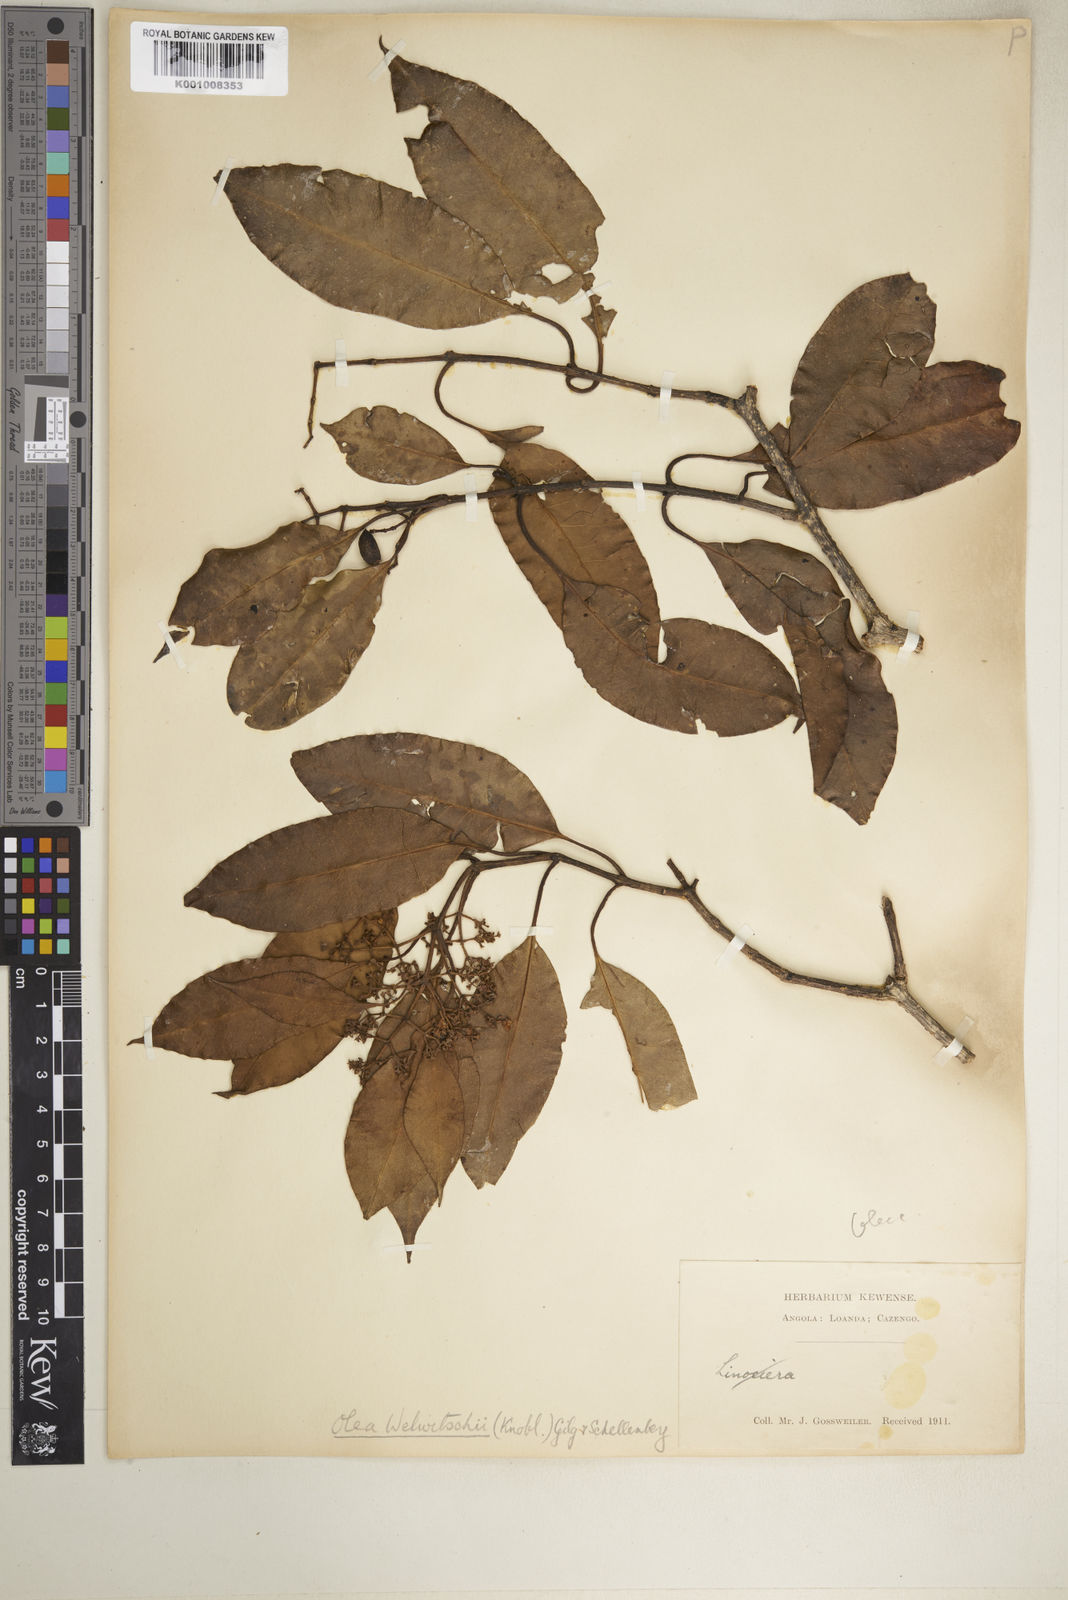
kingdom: Plantae
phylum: Tracheophyta
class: Magnoliopsida
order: Lamiales
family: Oleaceae
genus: Olea
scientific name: Olea welwitschii
